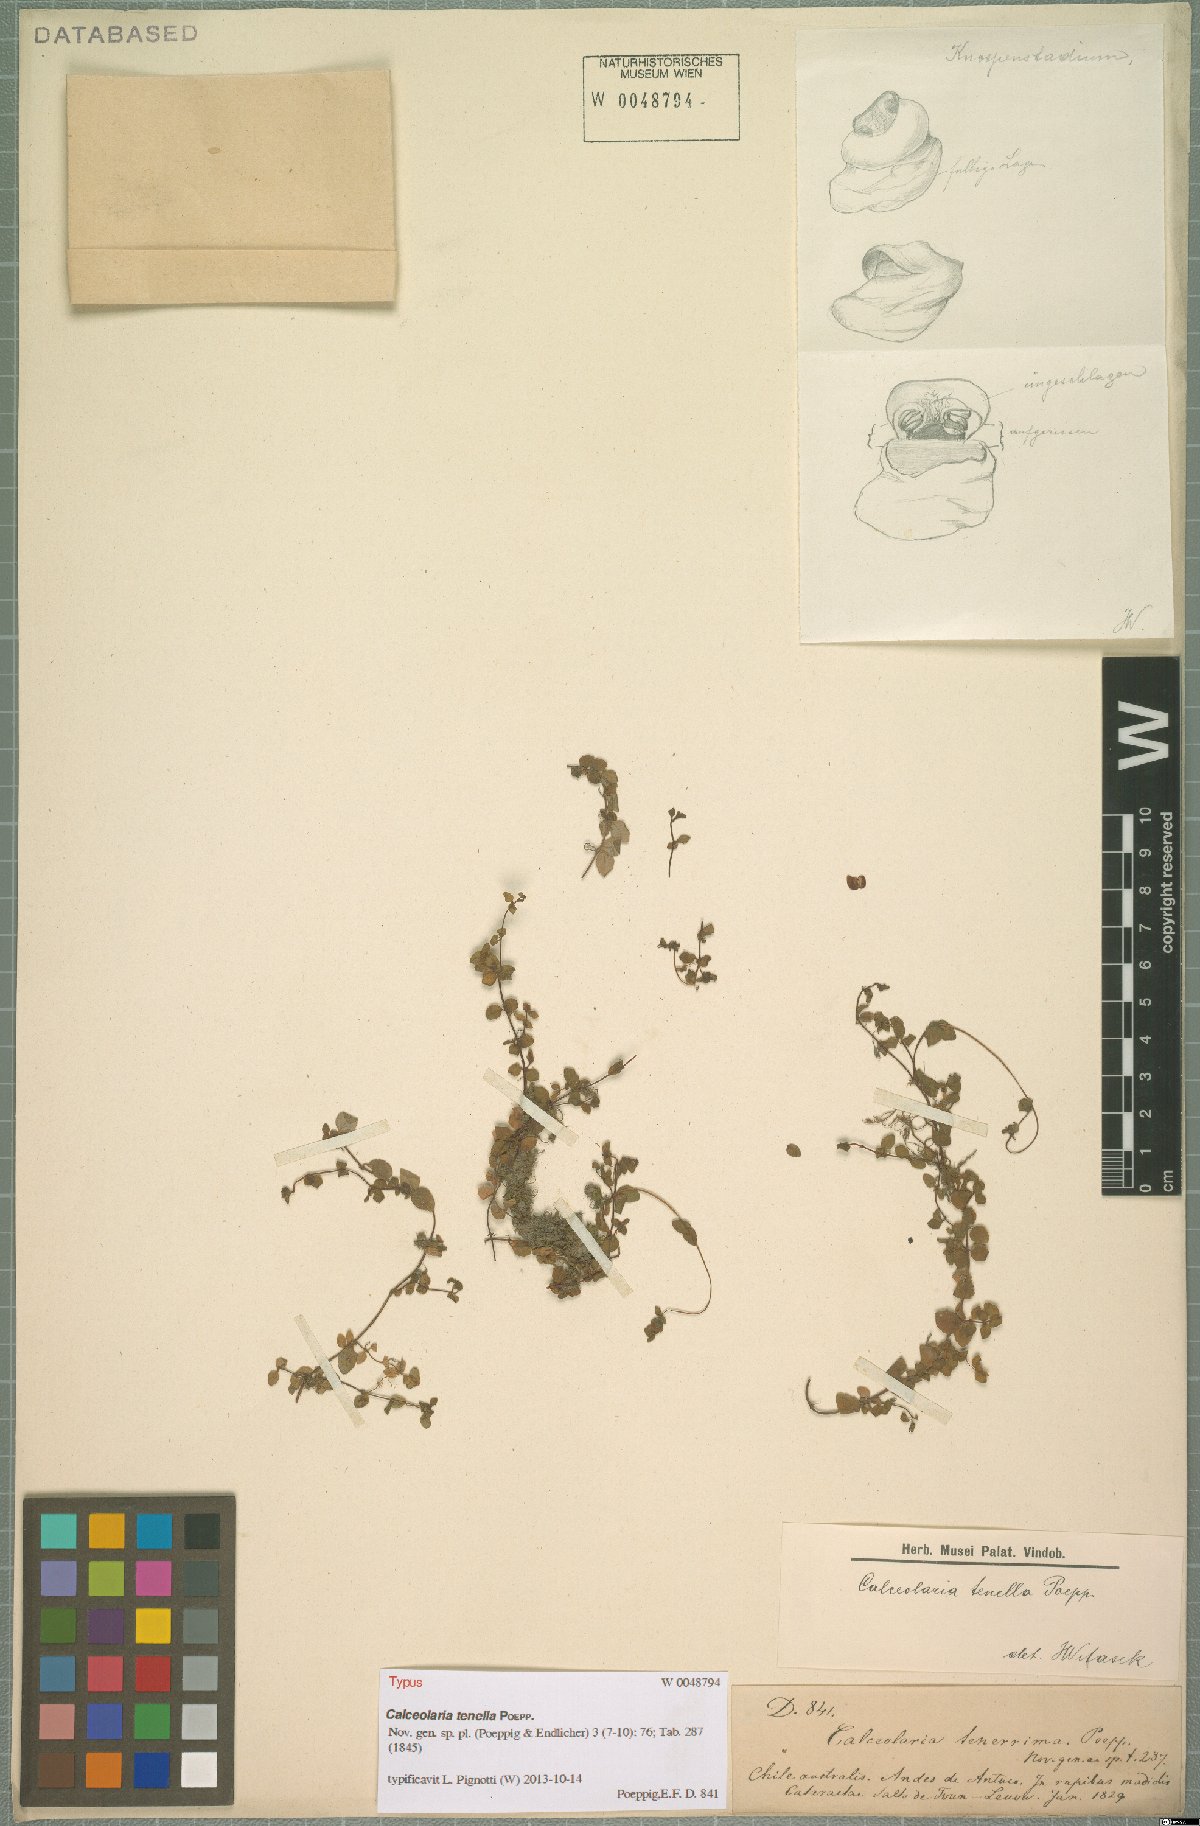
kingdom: Plantae
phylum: Tracheophyta
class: Magnoliopsida
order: Lamiales
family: Calceolariaceae
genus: Calceolaria
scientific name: Calceolaria tenella
